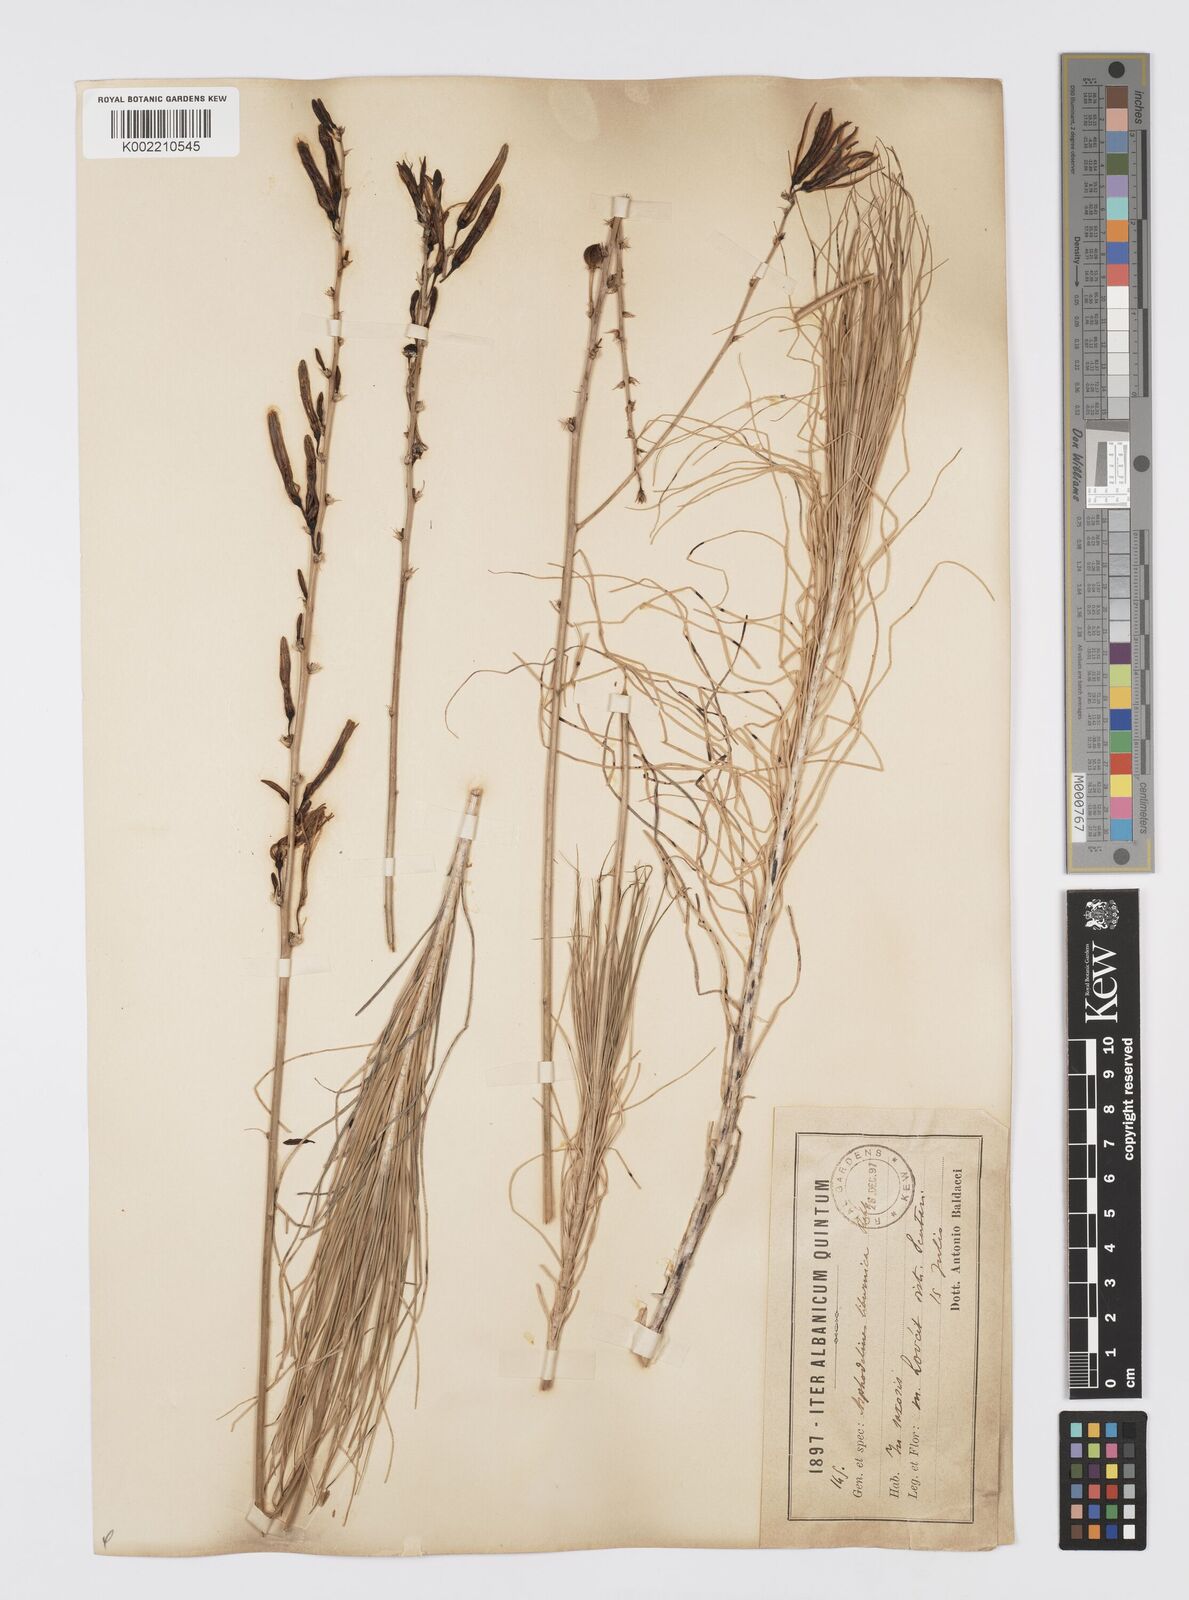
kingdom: Plantae
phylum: Tracheophyta
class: Liliopsida
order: Asparagales
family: Asphodelaceae
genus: Asphodeline
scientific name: Asphodeline liburnica
